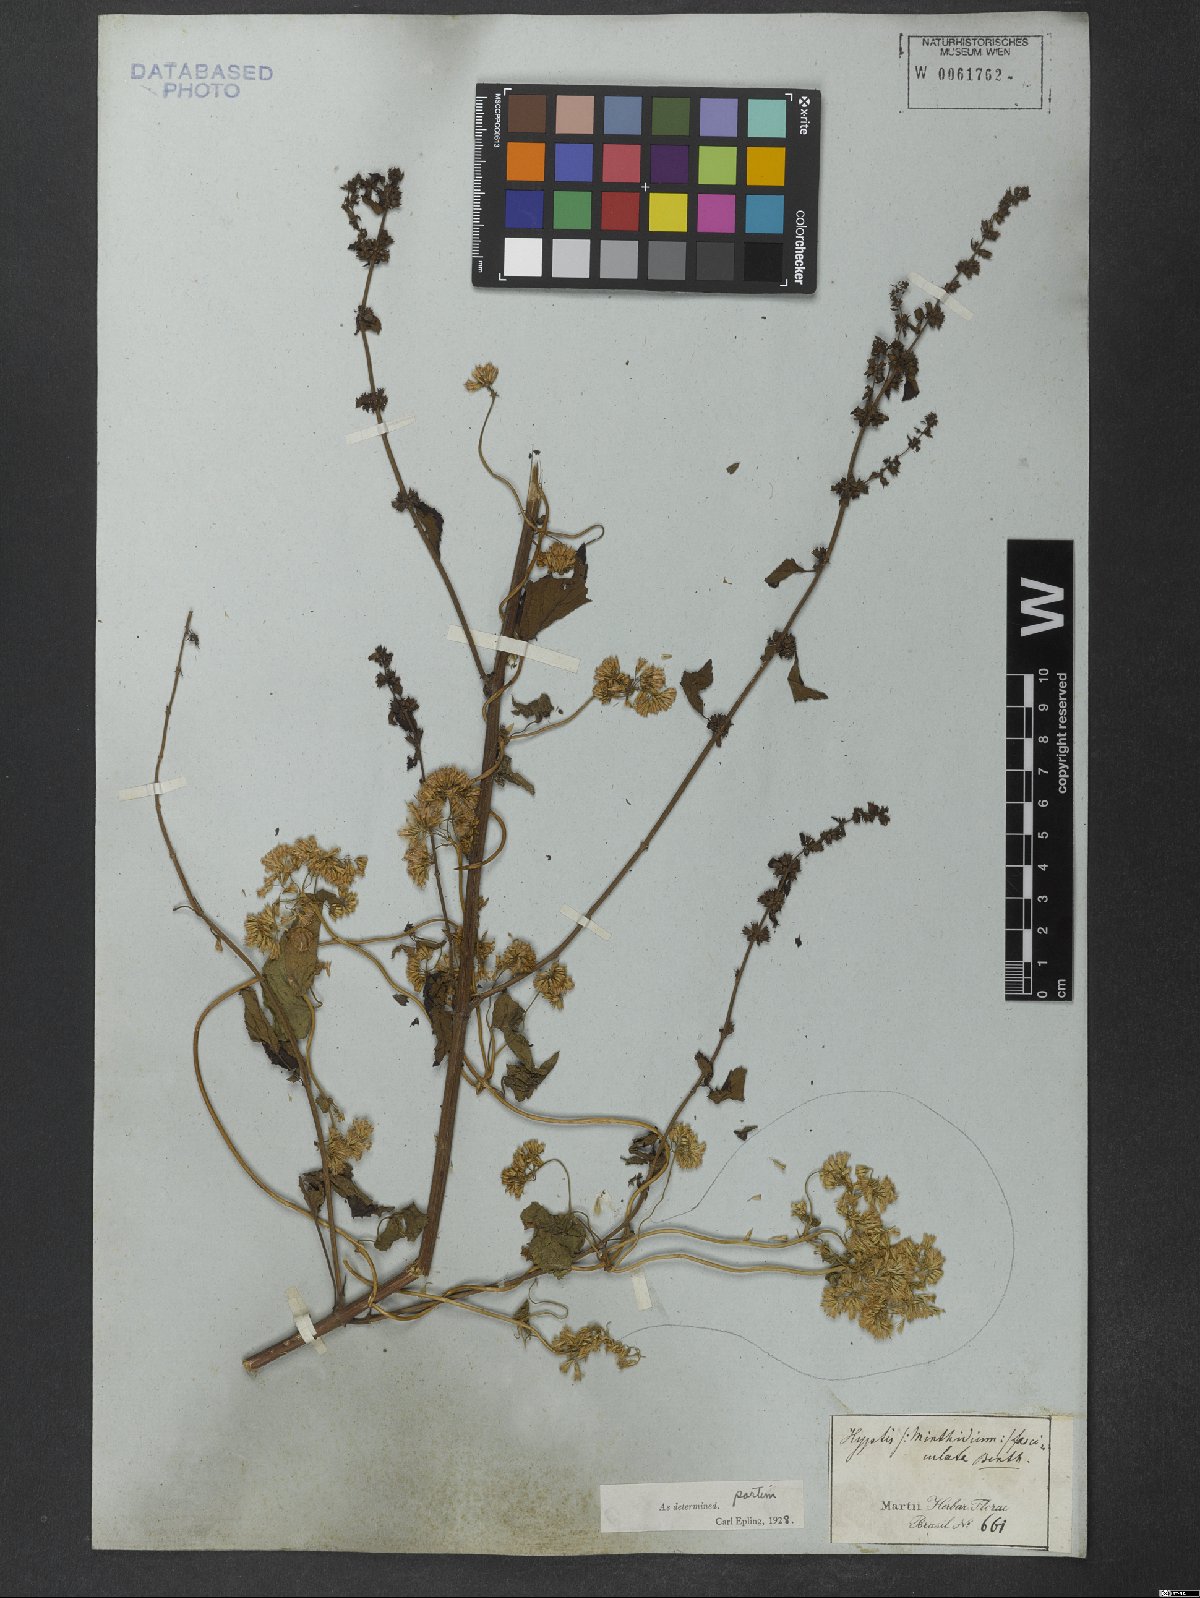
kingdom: Plantae
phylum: Tracheophyta
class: Magnoliopsida
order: Lamiales
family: Lamiaceae
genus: Condea
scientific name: Condea undulata
